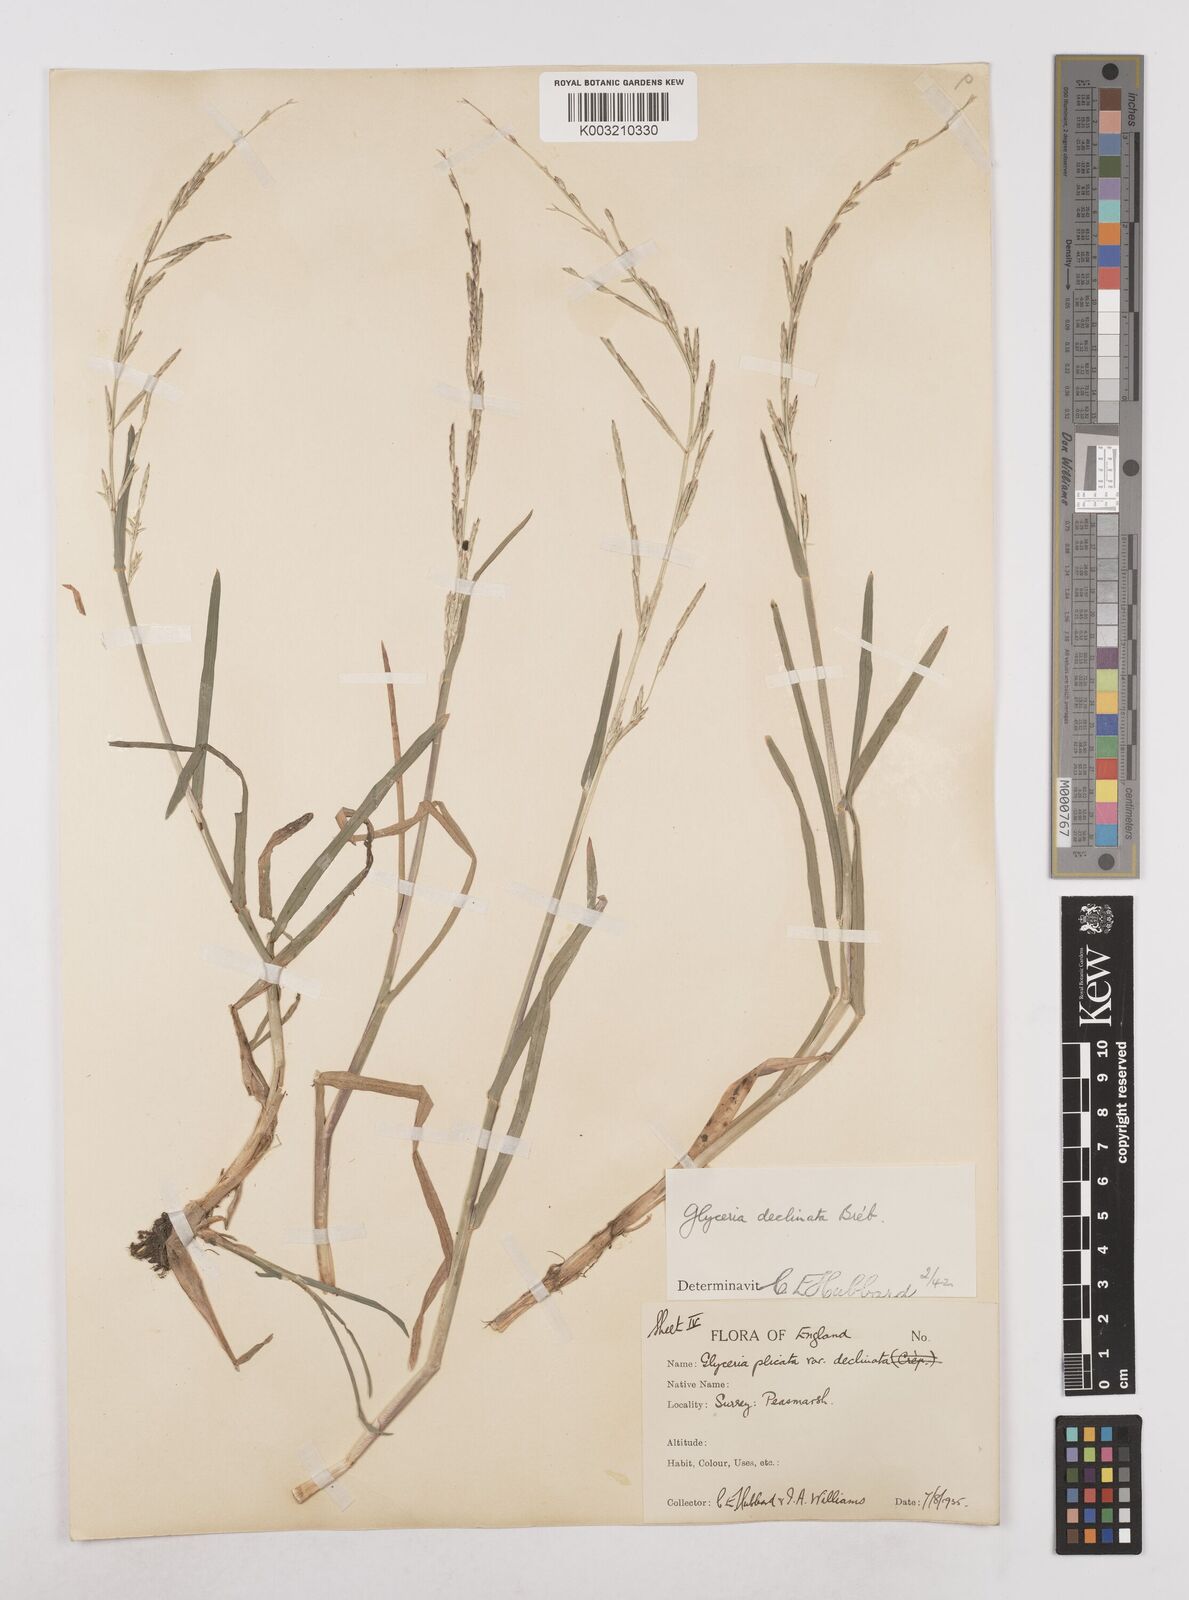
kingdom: Plantae
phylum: Tracheophyta
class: Liliopsida
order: Poales
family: Poaceae
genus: Glyceria
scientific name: Glyceria declinata
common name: Small sweet-grass
